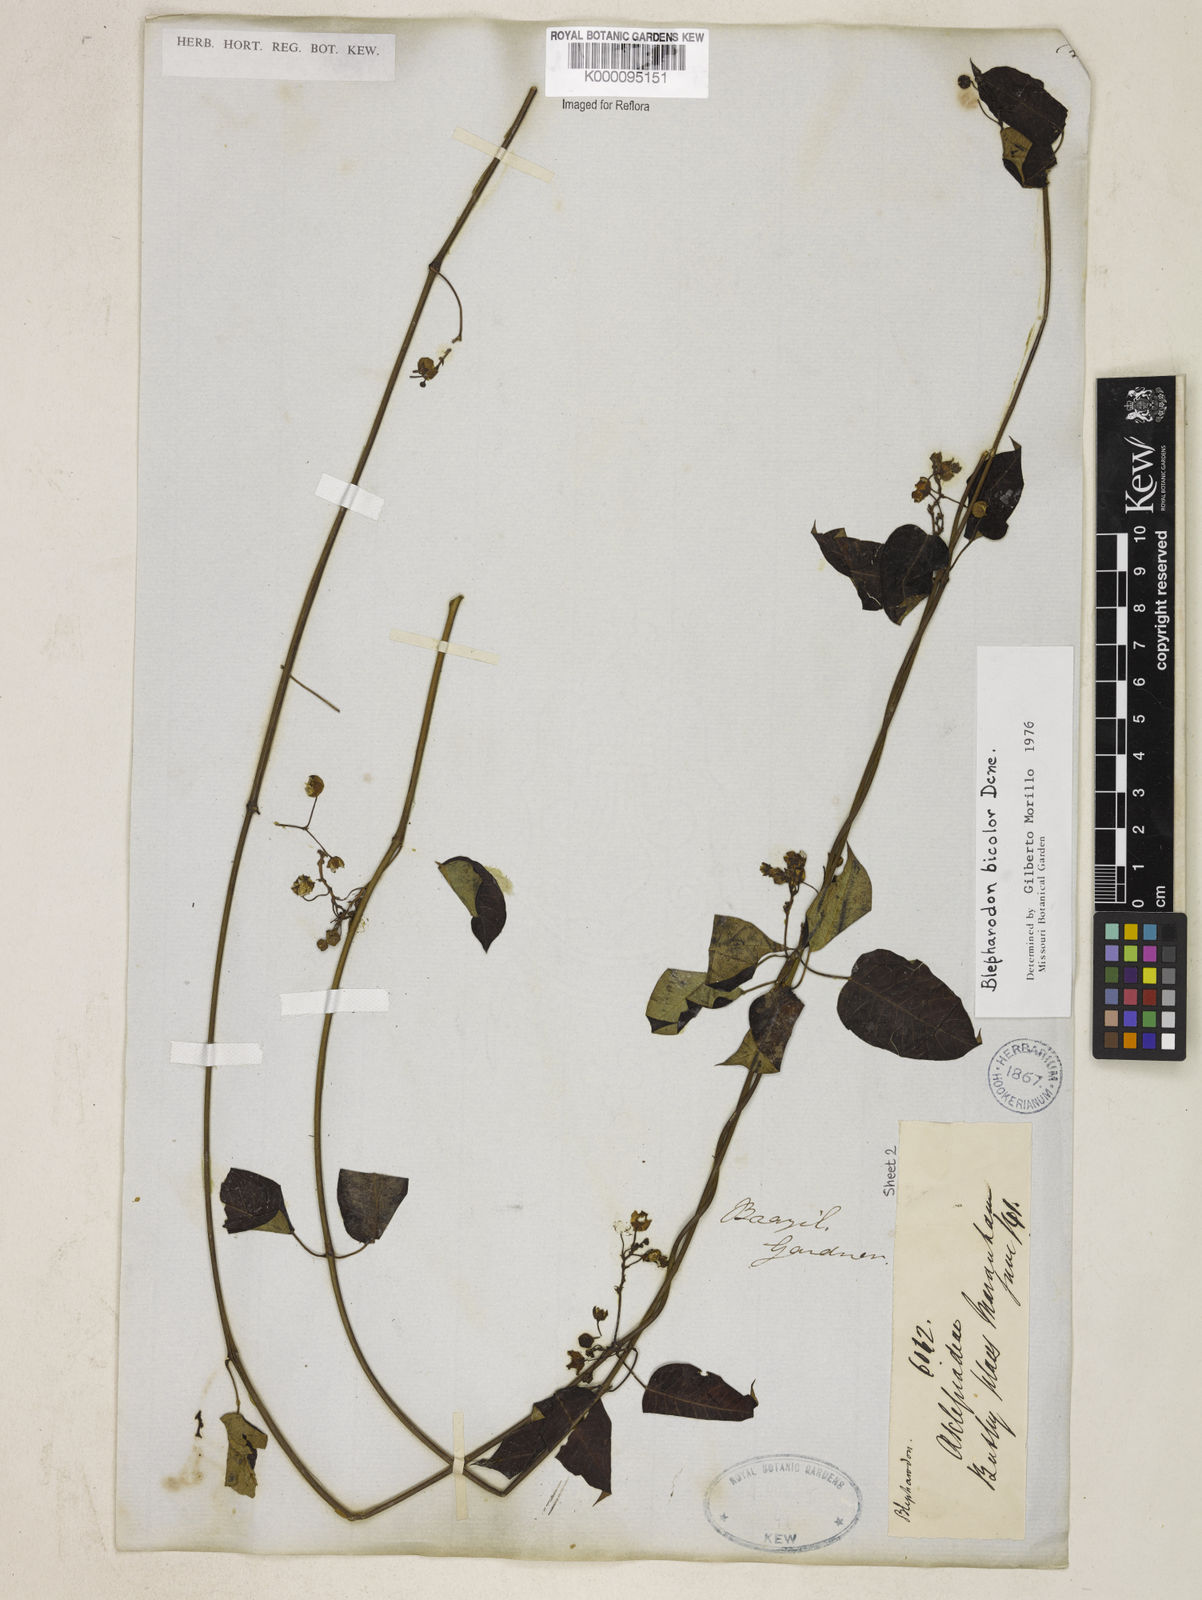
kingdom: Plantae
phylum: Tracheophyta
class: Magnoliopsida
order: Gentianales
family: Apocynaceae
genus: Blepharodon
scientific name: Blepharodon bicolor
